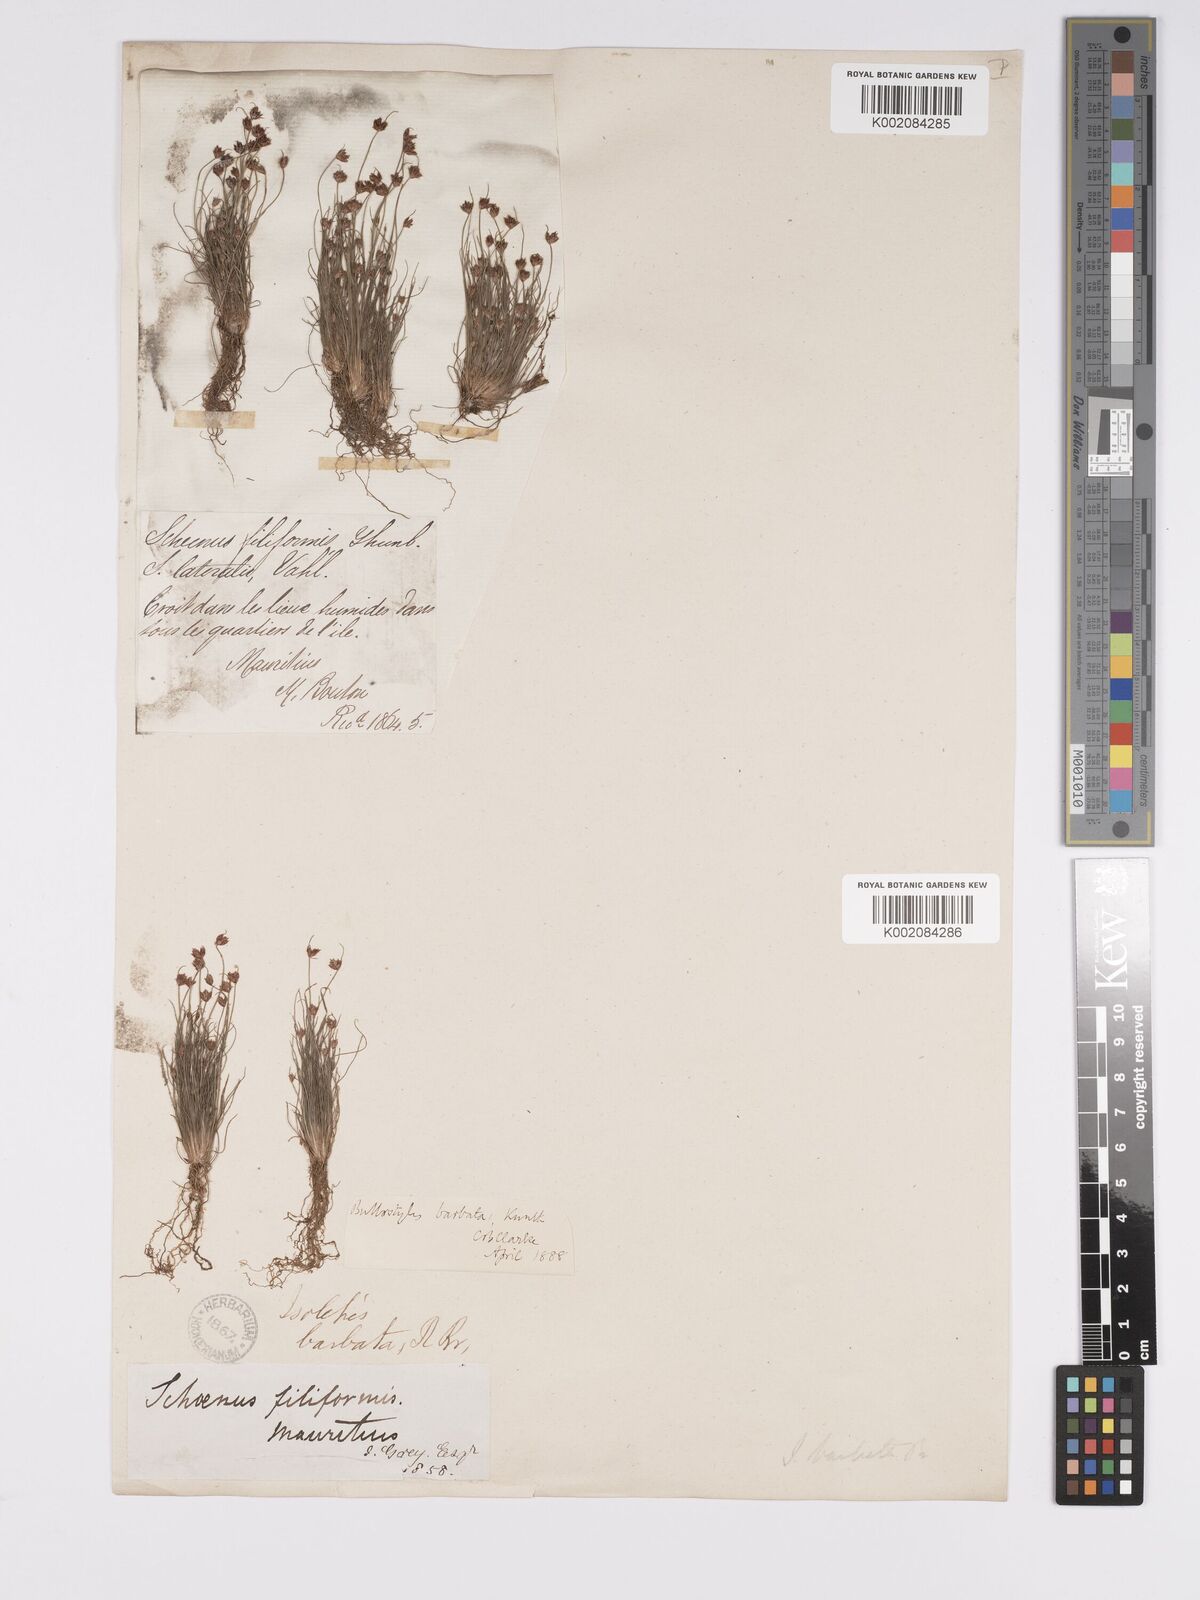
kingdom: Plantae
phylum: Tracheophyta
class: Liliopsida
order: Poales
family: Cyperaceae
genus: Bulbostylis
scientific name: Bulbostylis barbata
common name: Watergrass
